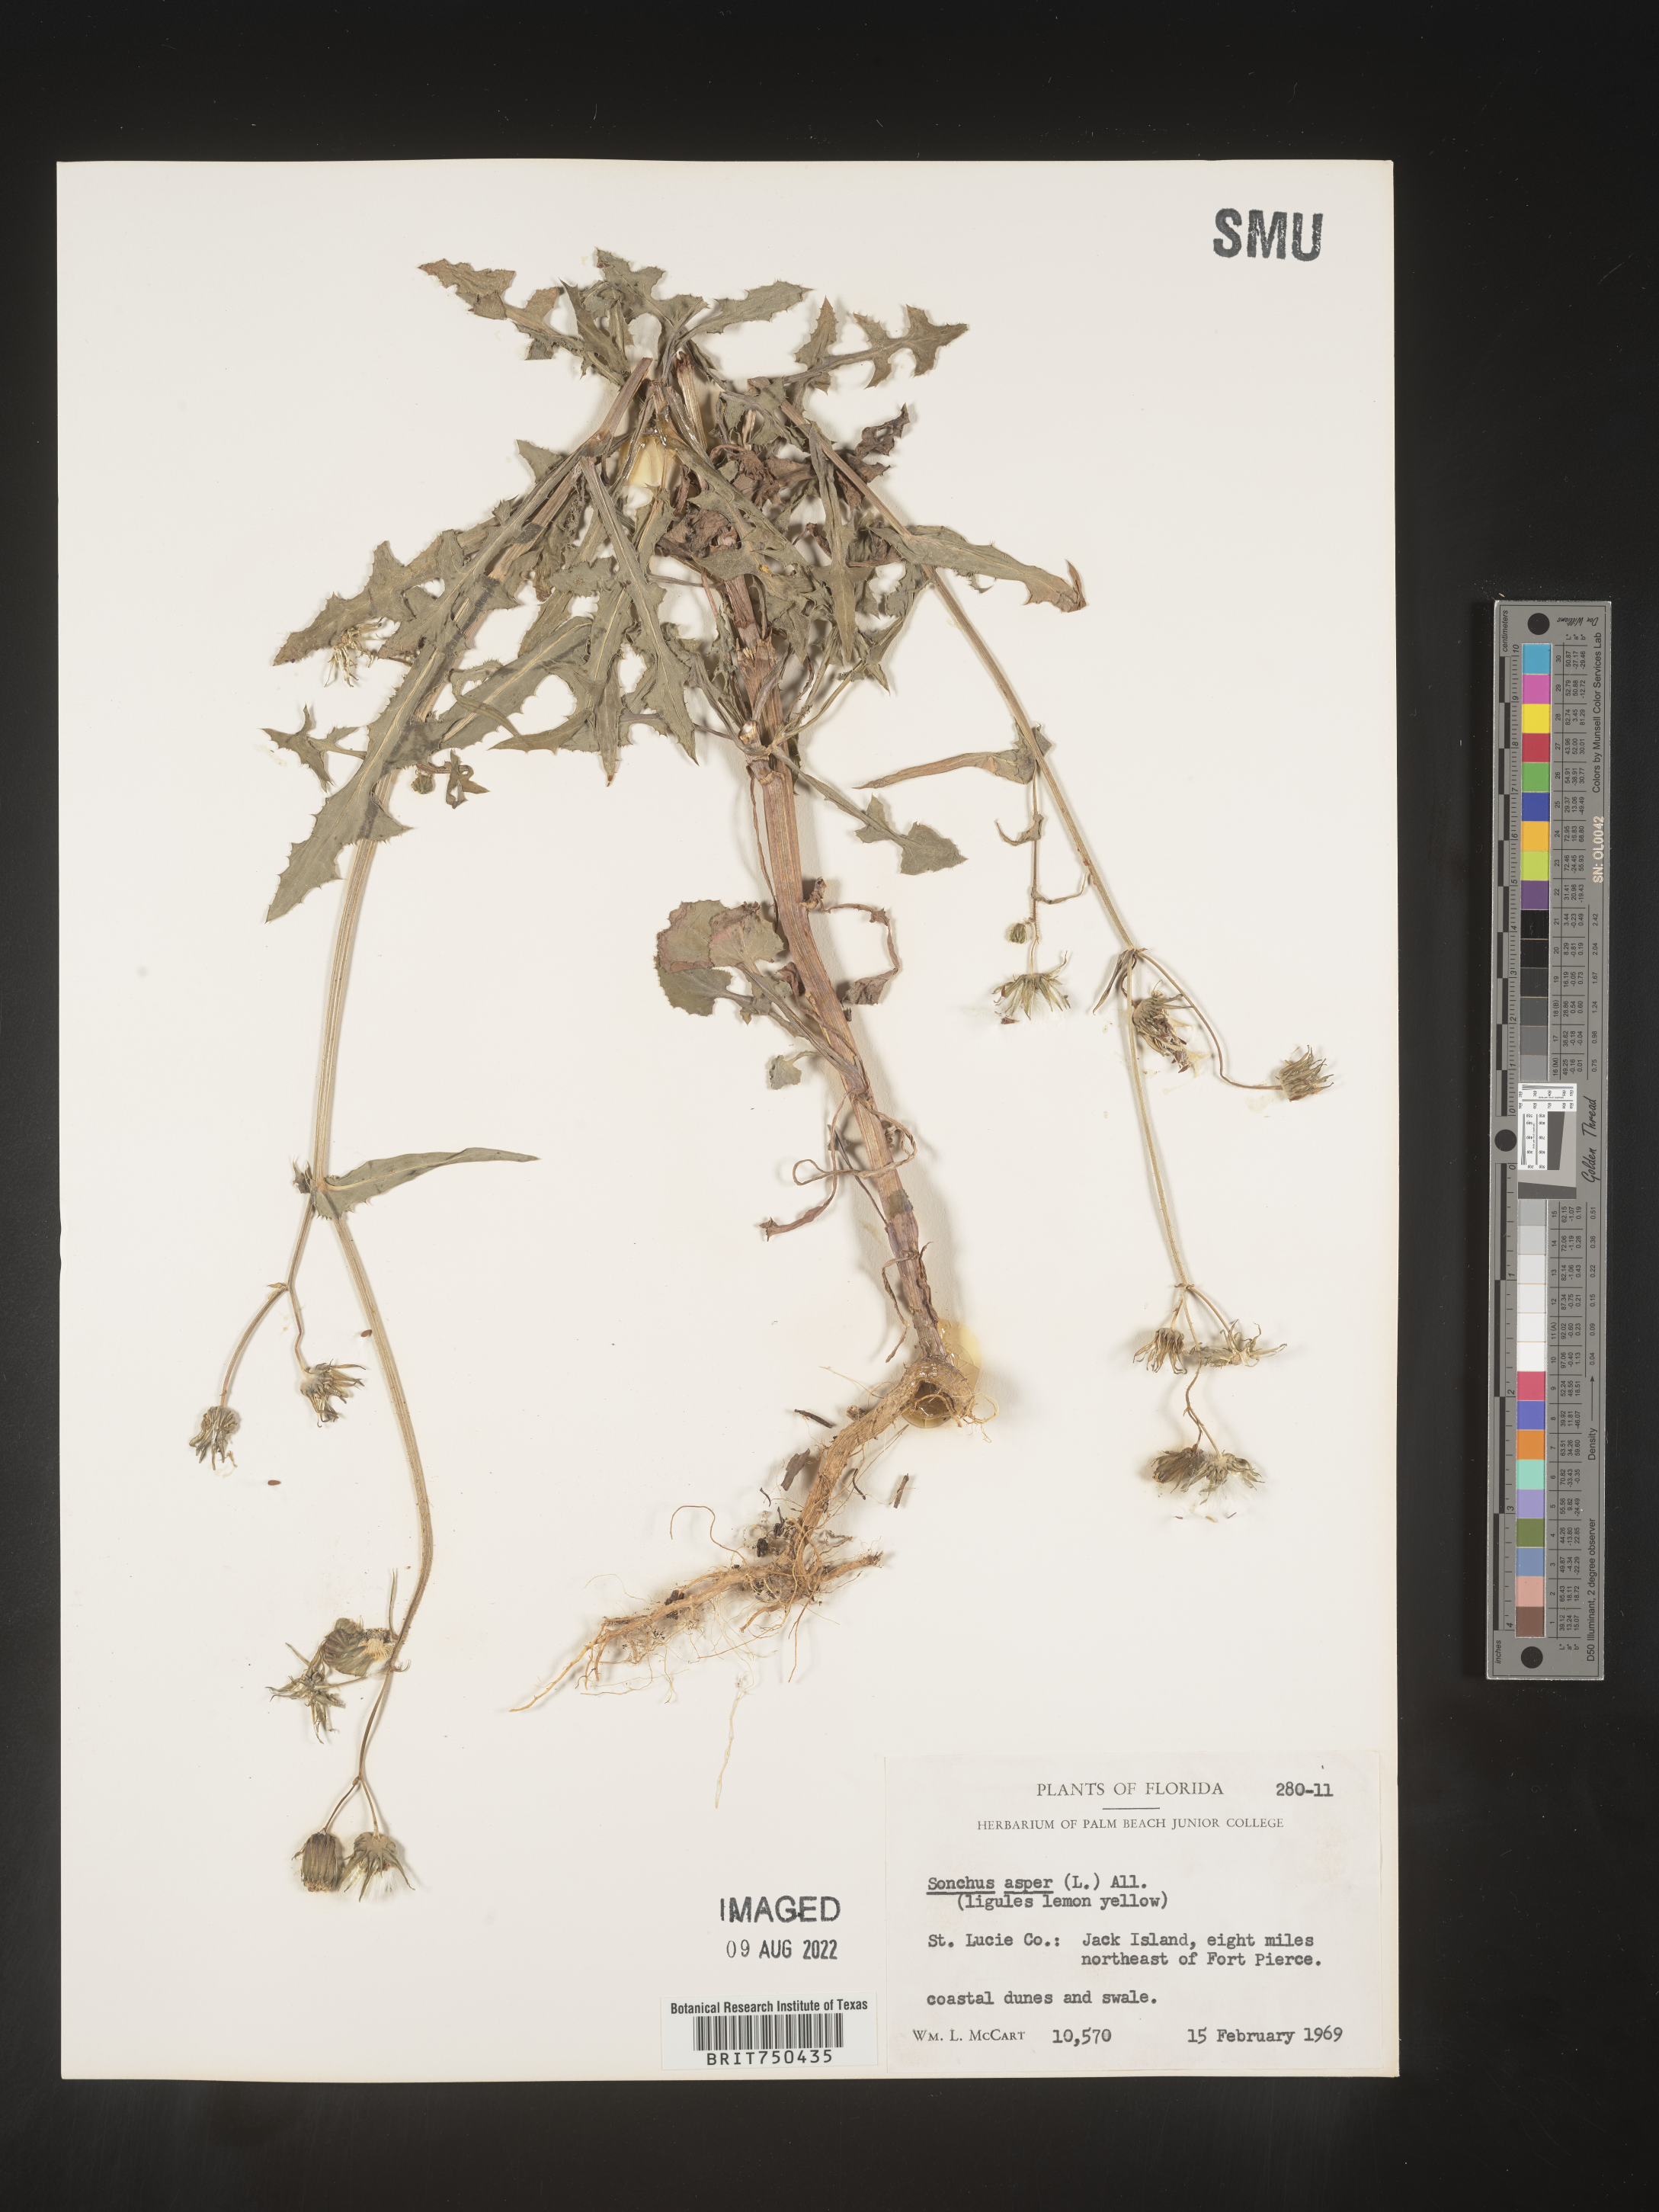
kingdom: Plantae
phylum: Tracheophyta
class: Magnoliopsida
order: Asterales
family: Asteraceae
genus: Sonchus
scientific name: Sonchus asper
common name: Prickly sow-thistle
